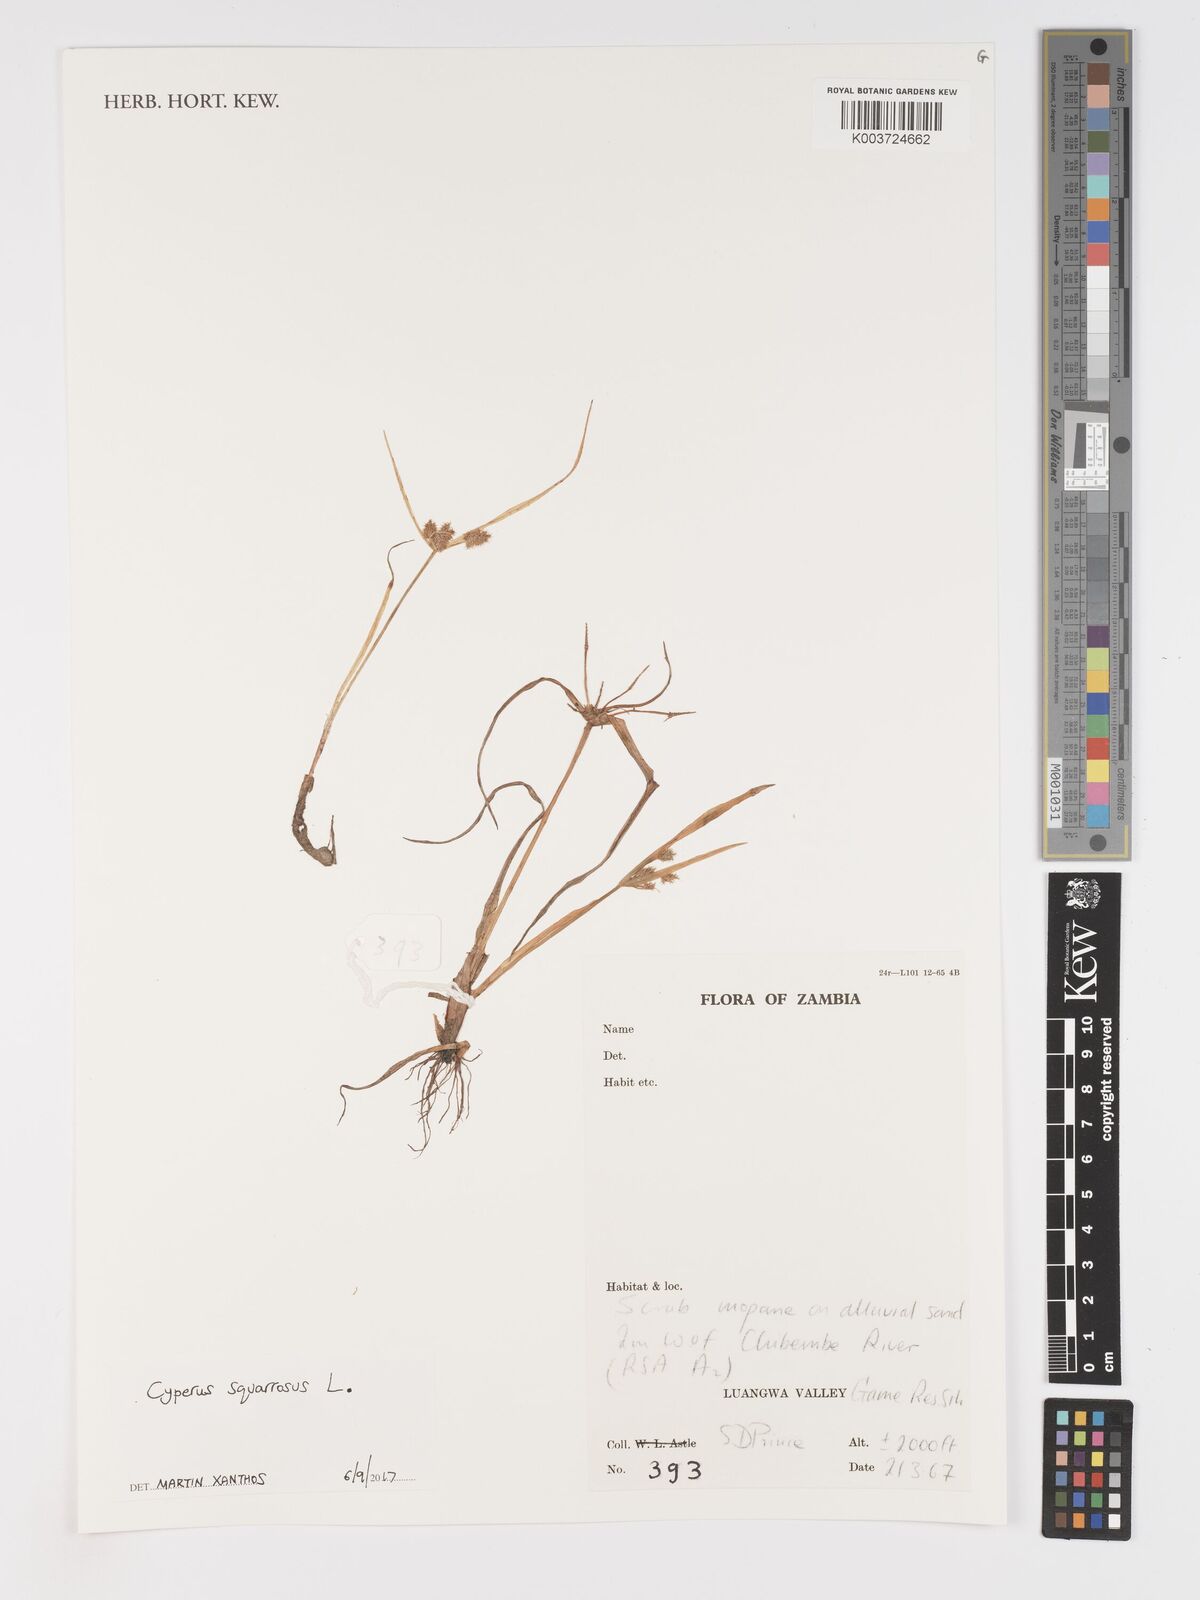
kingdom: Plantae
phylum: Tracheophyta
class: Liliopsida
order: Poales
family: Cyperaceae
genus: Cyperus
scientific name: Cyperus squarrosus
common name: Awned cyperus
